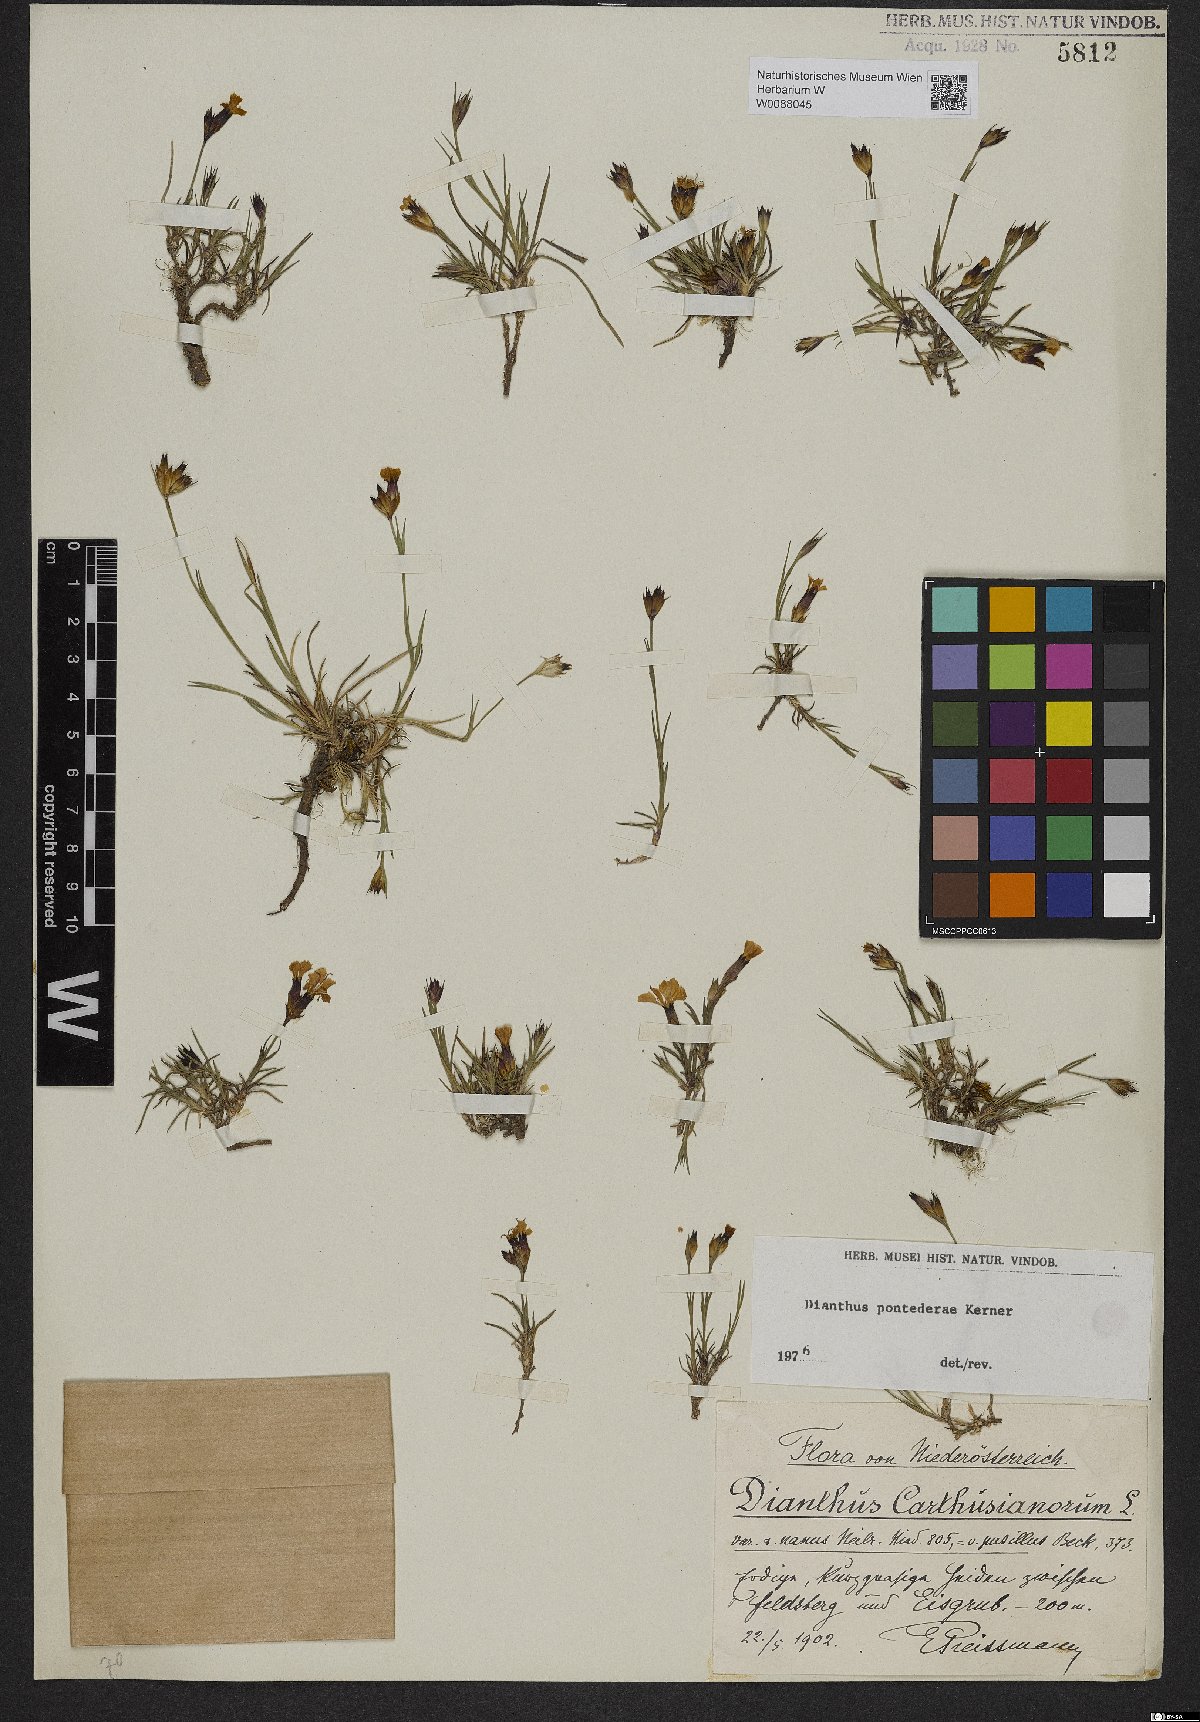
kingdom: Plantae
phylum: Tracheophyta
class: Magnoliopsida
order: Caryophyllales
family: Caryophyllaceae
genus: Dianthus
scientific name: Dianthus pontederae
